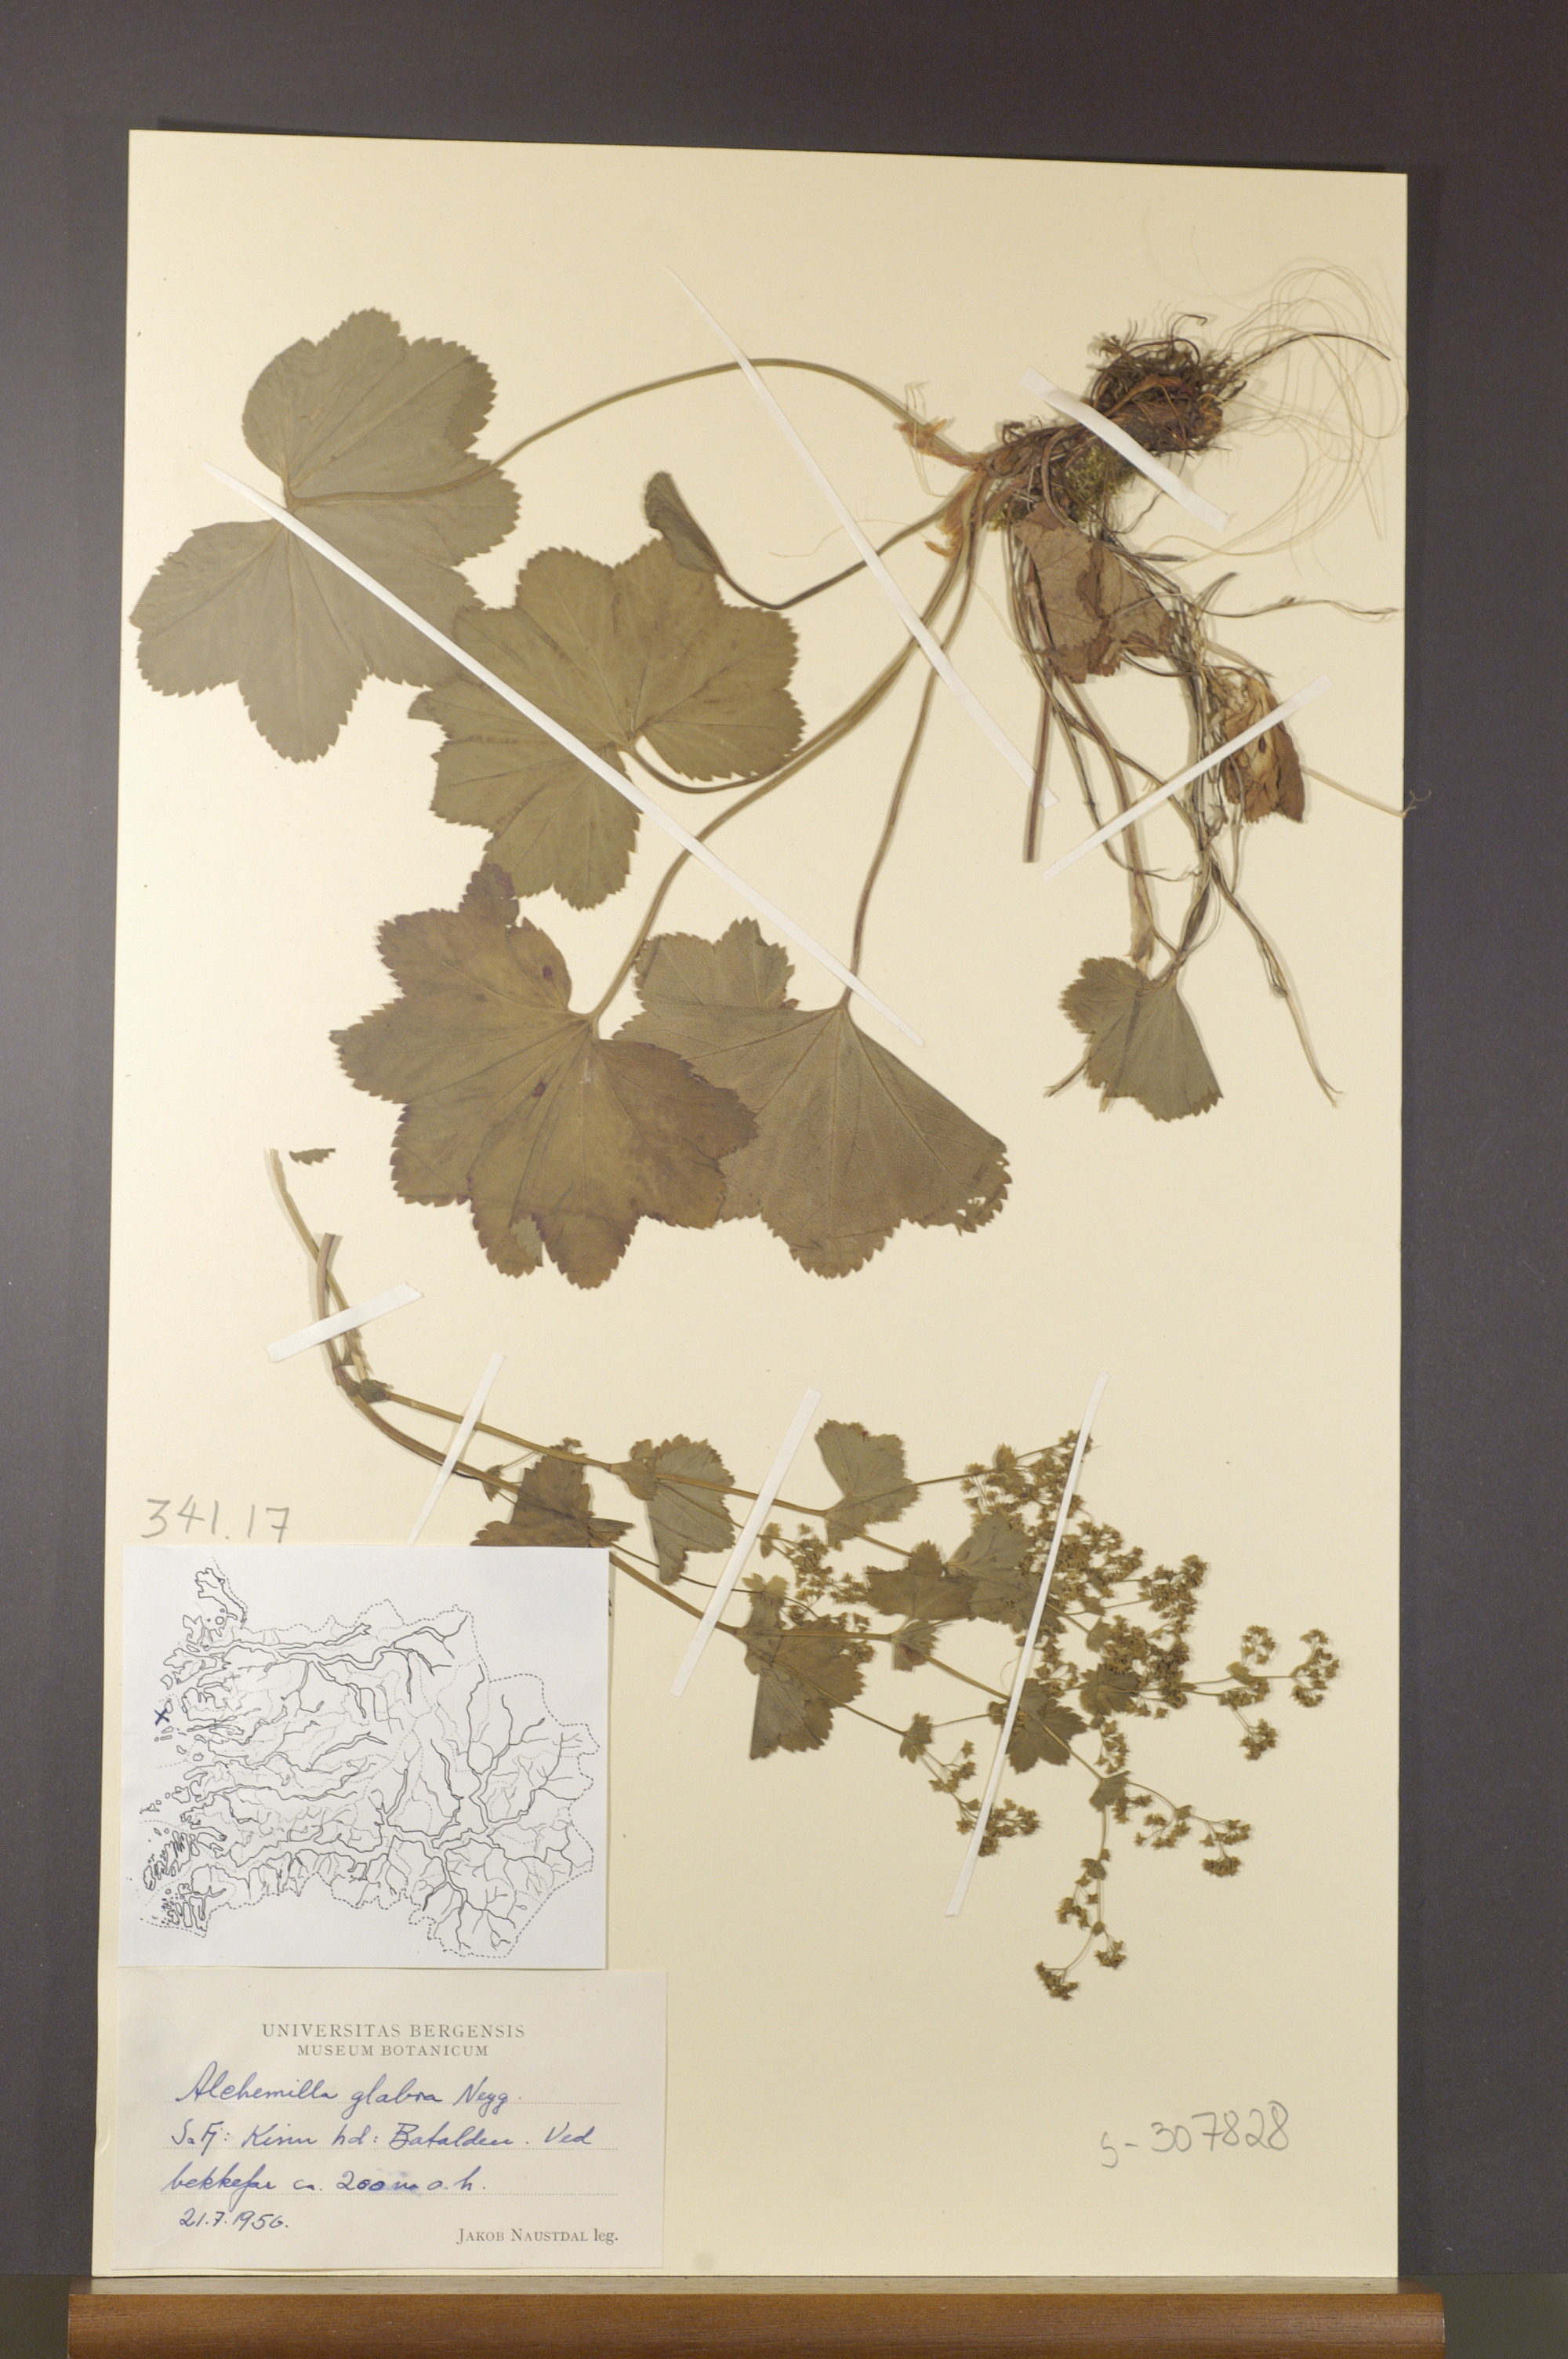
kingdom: Plantae
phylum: Tracheophyta
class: Magnoliopsida
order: Rosales
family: Rosaceae
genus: Alchemilla
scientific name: Alchemilla glabra
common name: Smooth lady's-mantle
